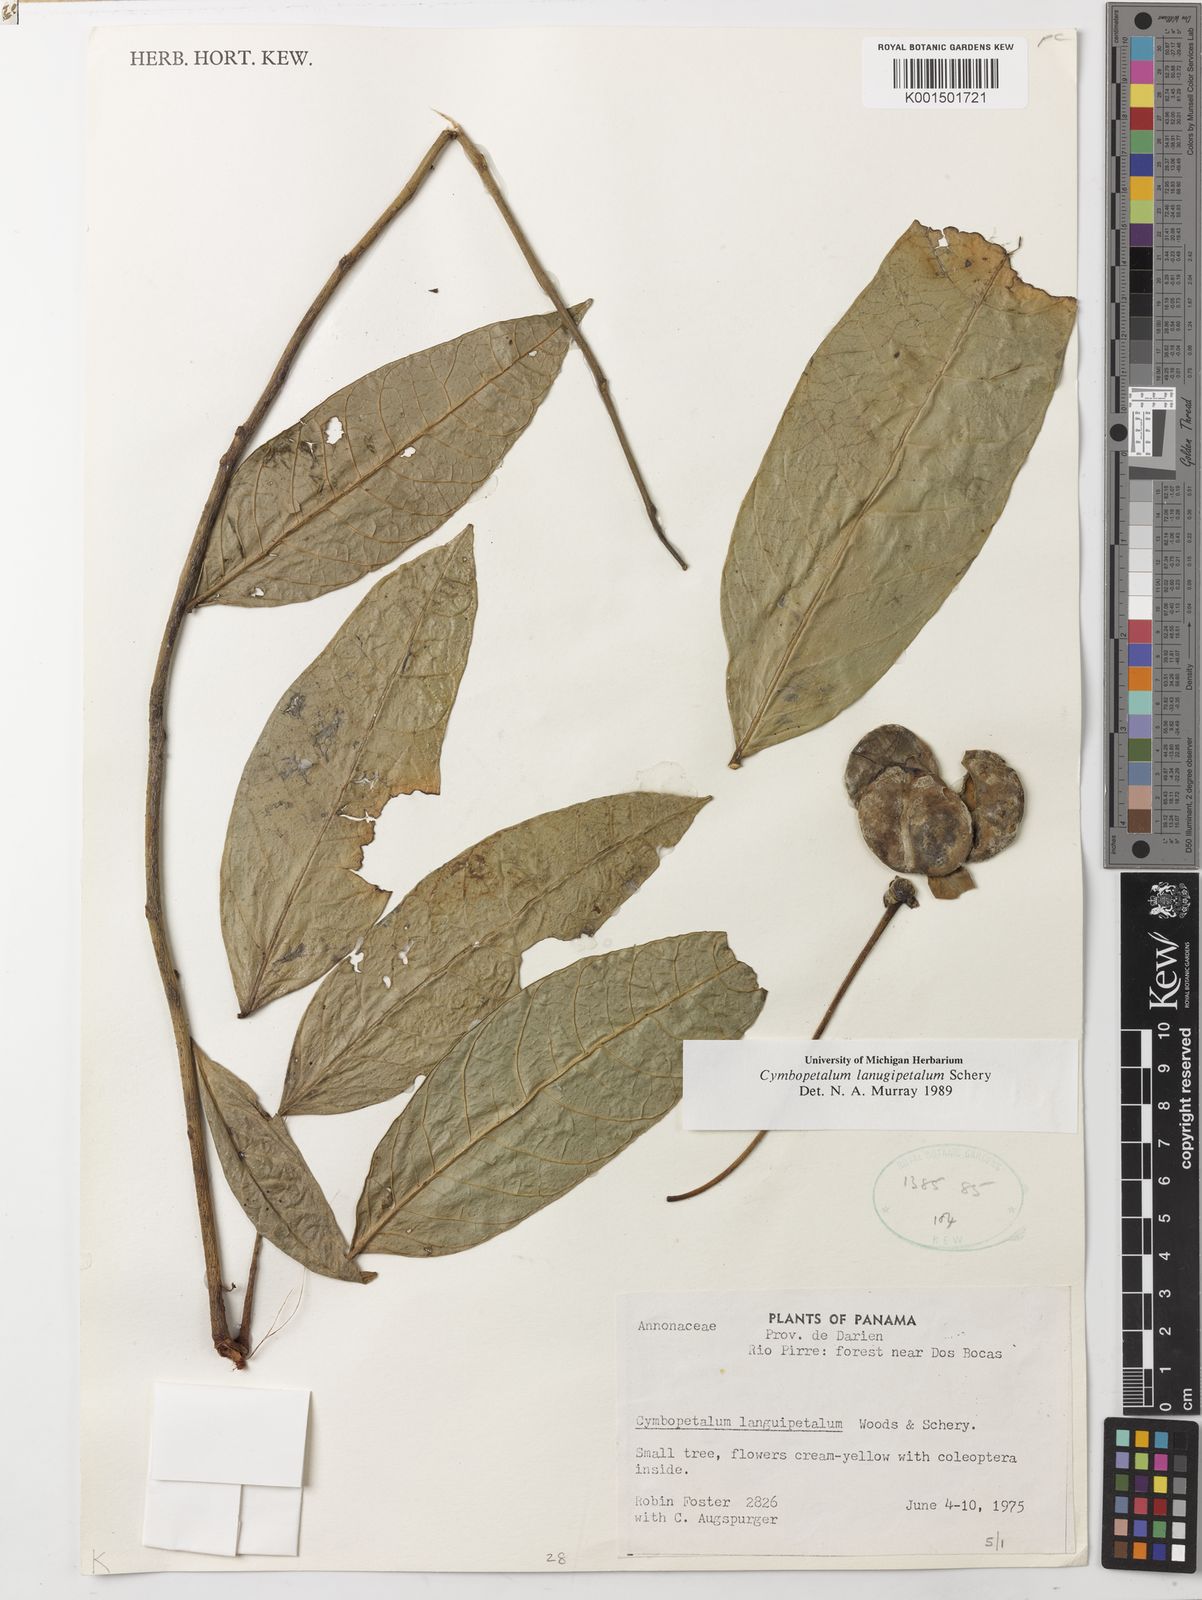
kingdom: Plantae
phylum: Tracheophyta
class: Magnoliopsida
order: Magnoliales
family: Annonaceae
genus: Cymbopetalum
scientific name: Cymbopetalum lanugipetalum
